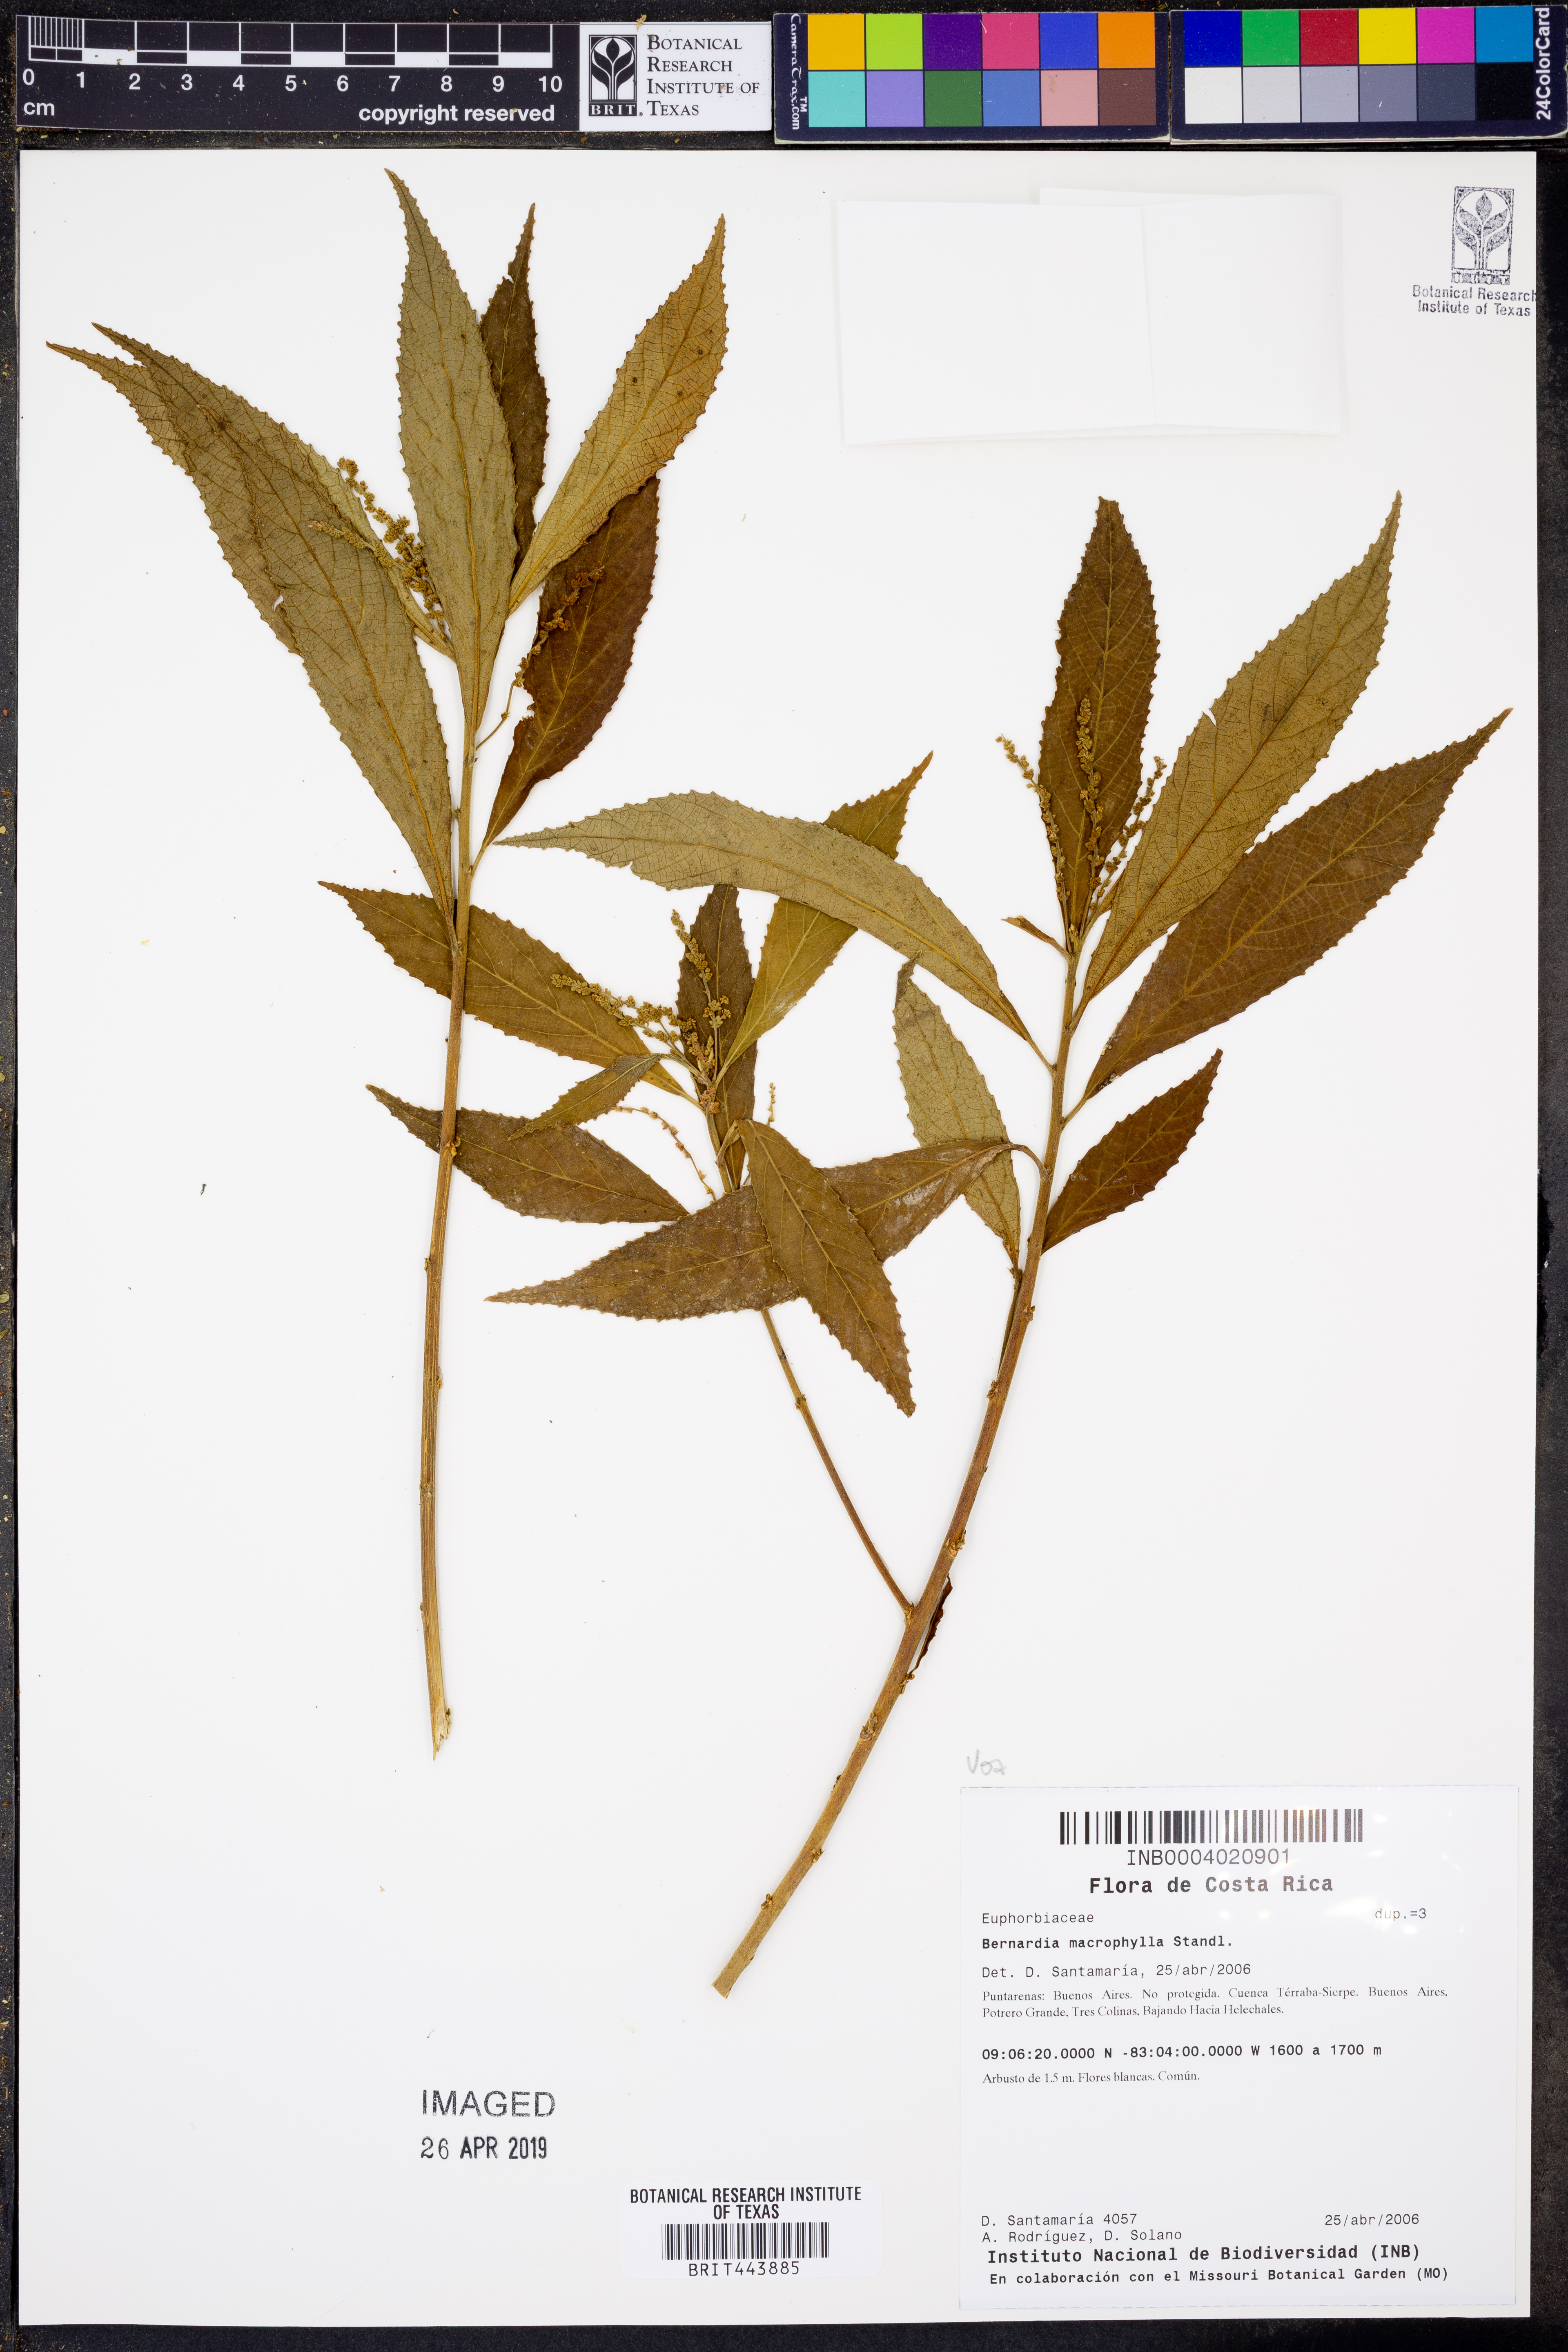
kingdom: Plantae
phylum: Tracheophyta
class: Magnoliopsida
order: Malpighiales
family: Euphorbiaceae
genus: Bernardia
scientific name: Bernardia macrophylla
